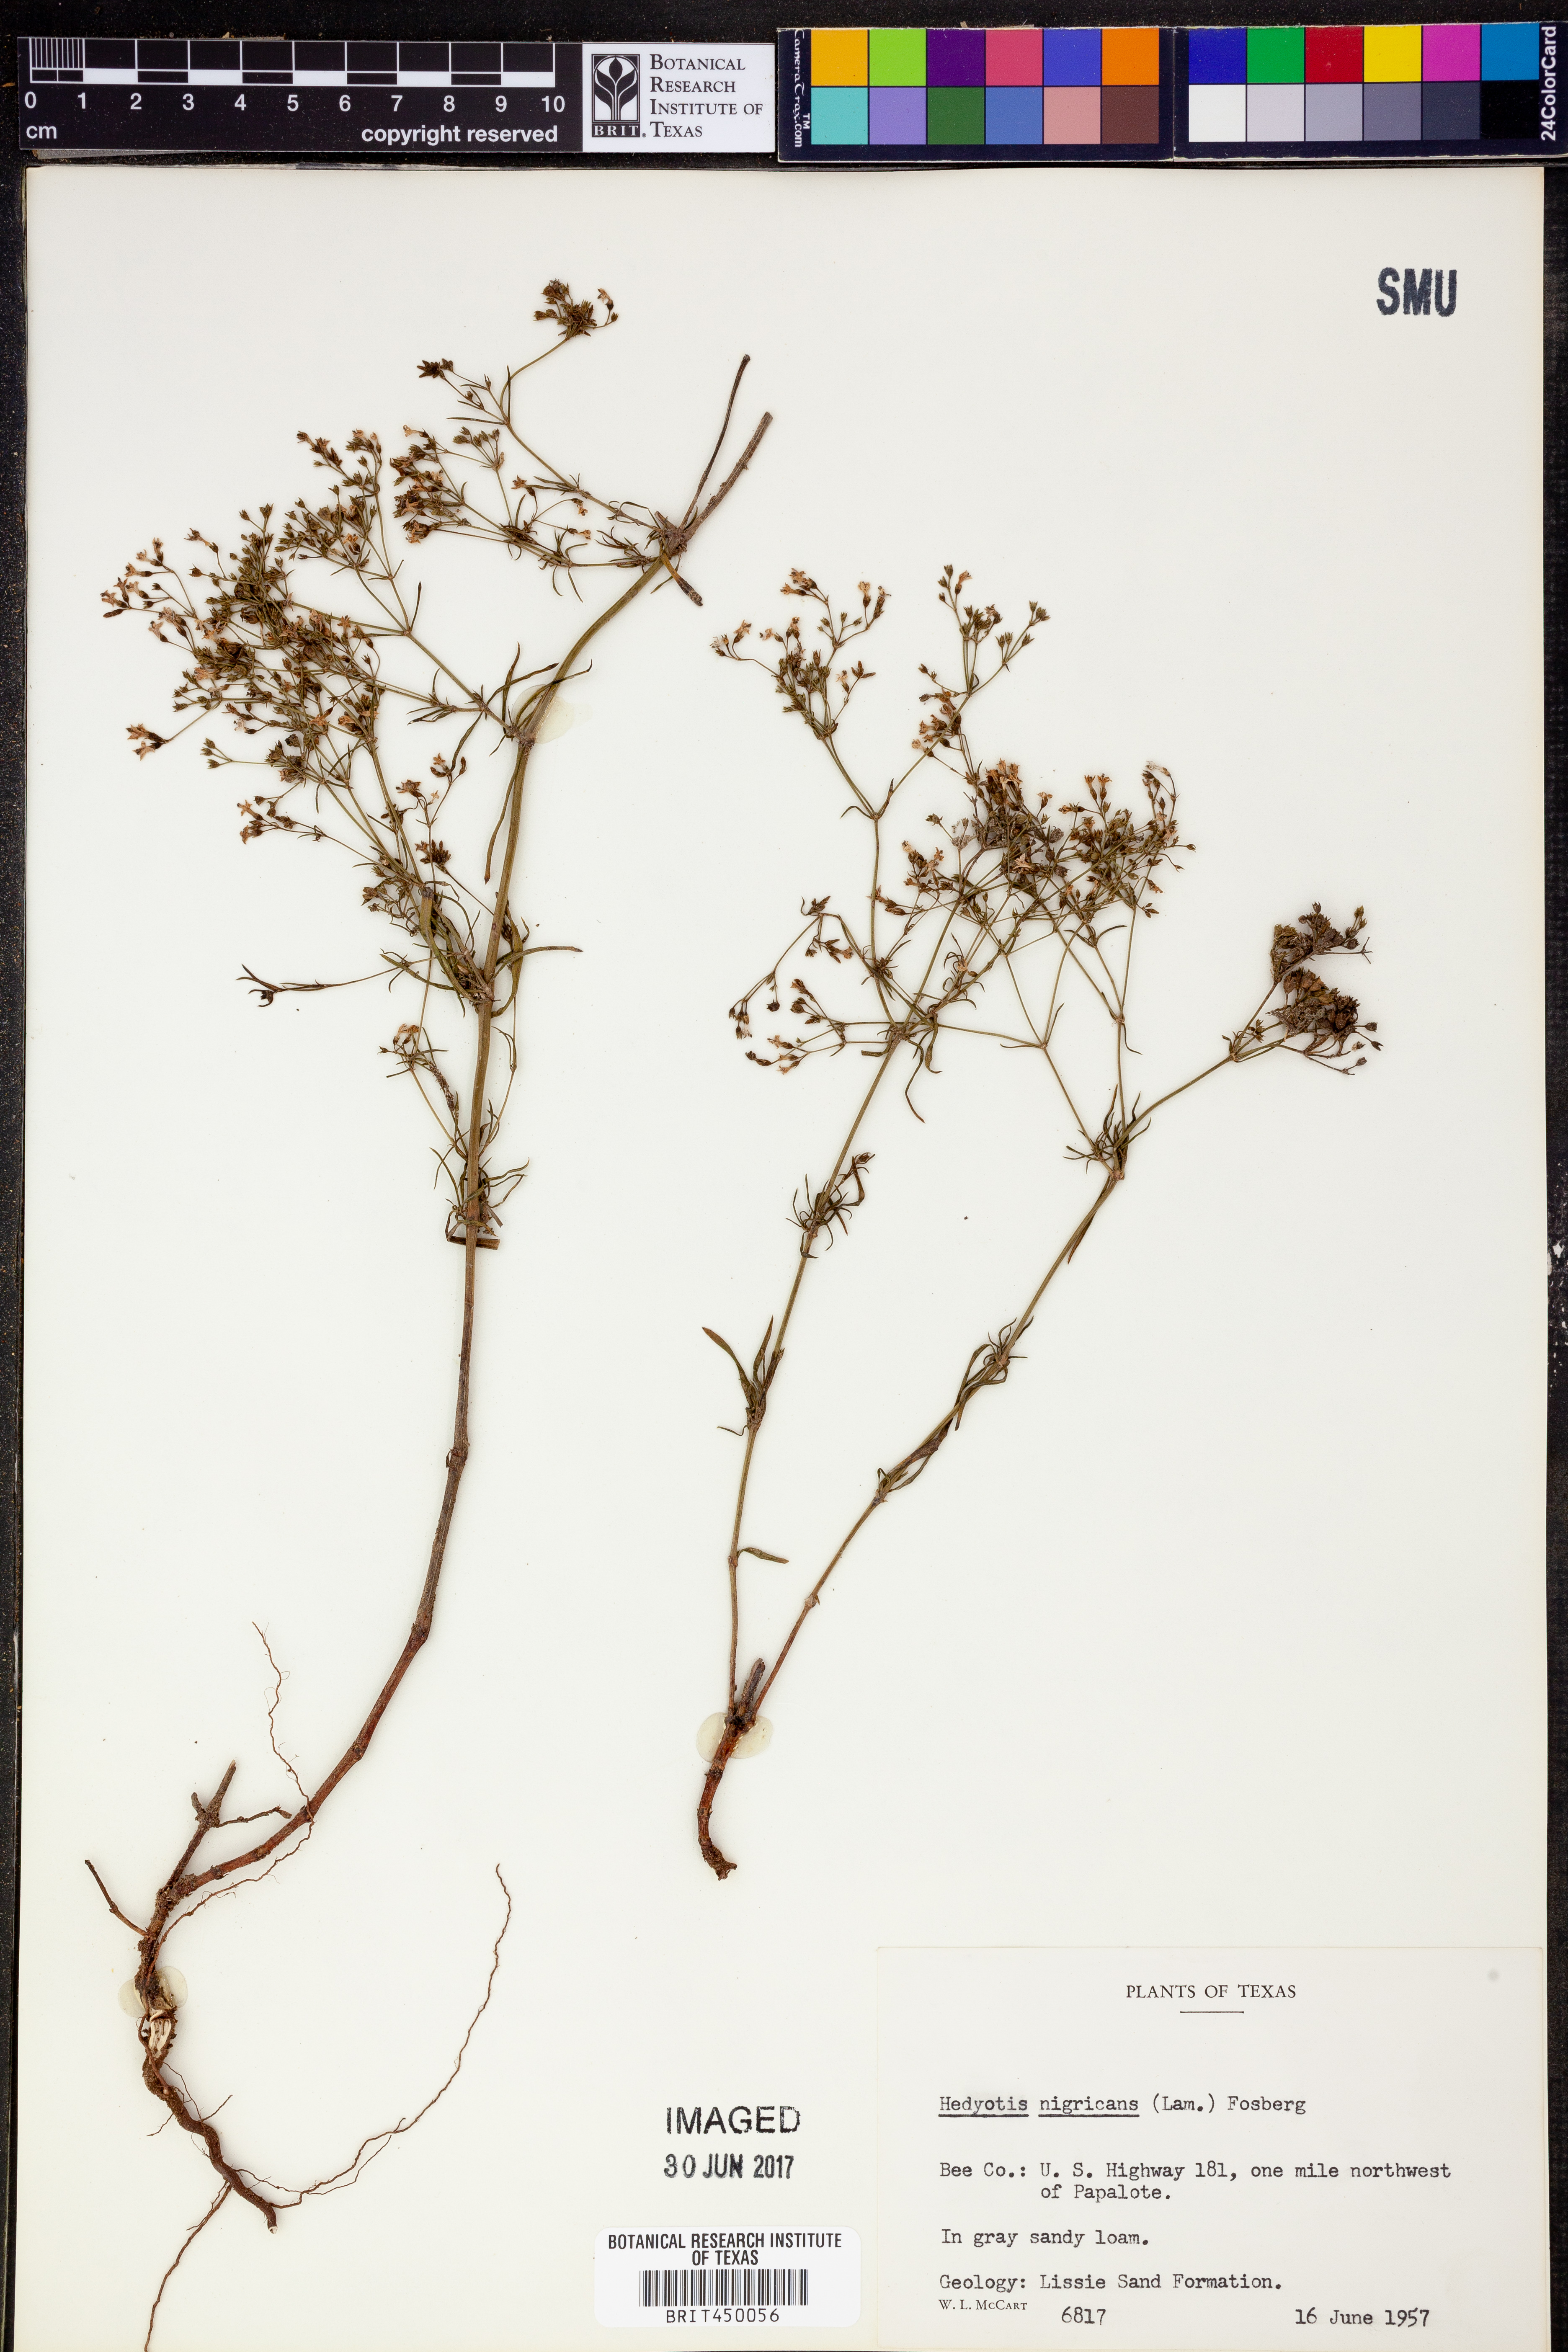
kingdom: Plantae
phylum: Tracheophyta
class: Magnoliopsida
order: Gentianales
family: Rubiaceae
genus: Stenaria
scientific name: Stenaria nigricans
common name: Diamondflowers
